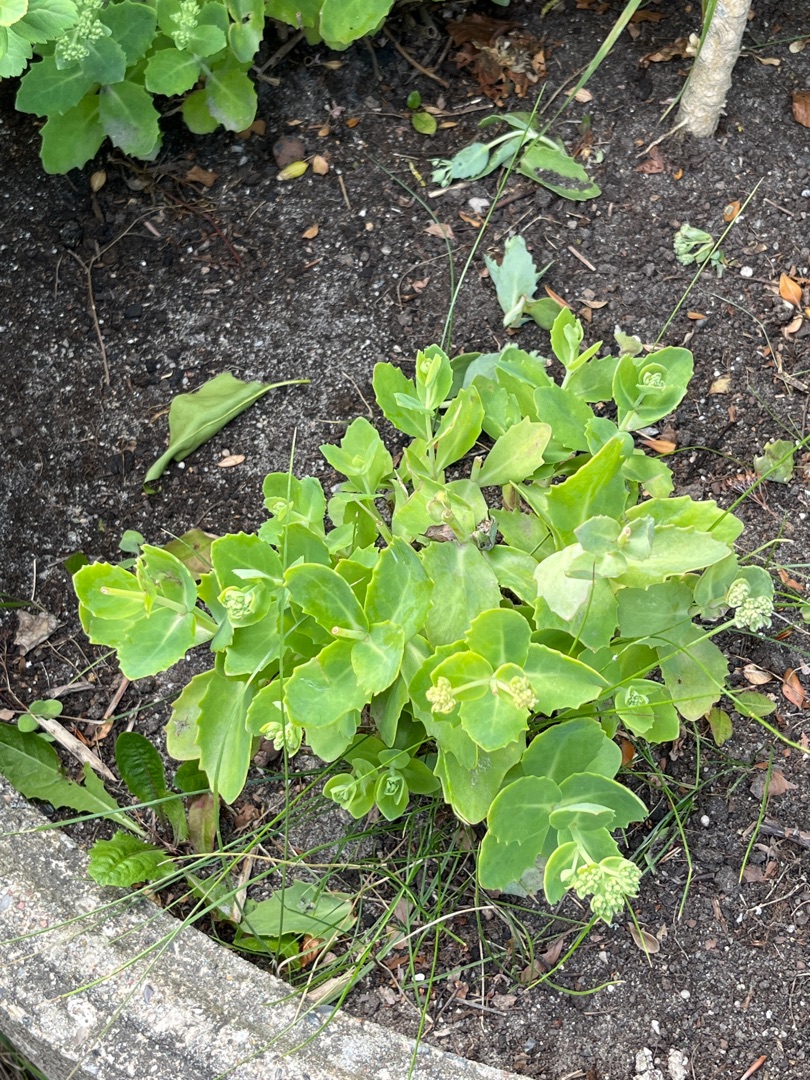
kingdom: Plantae
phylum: Tracheophyta
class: Magnoliopsida
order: Saxifragales
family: Crassulaceae
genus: Hylotelephium
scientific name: Hylotelephium maximum
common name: Almindelig sankthansurt
